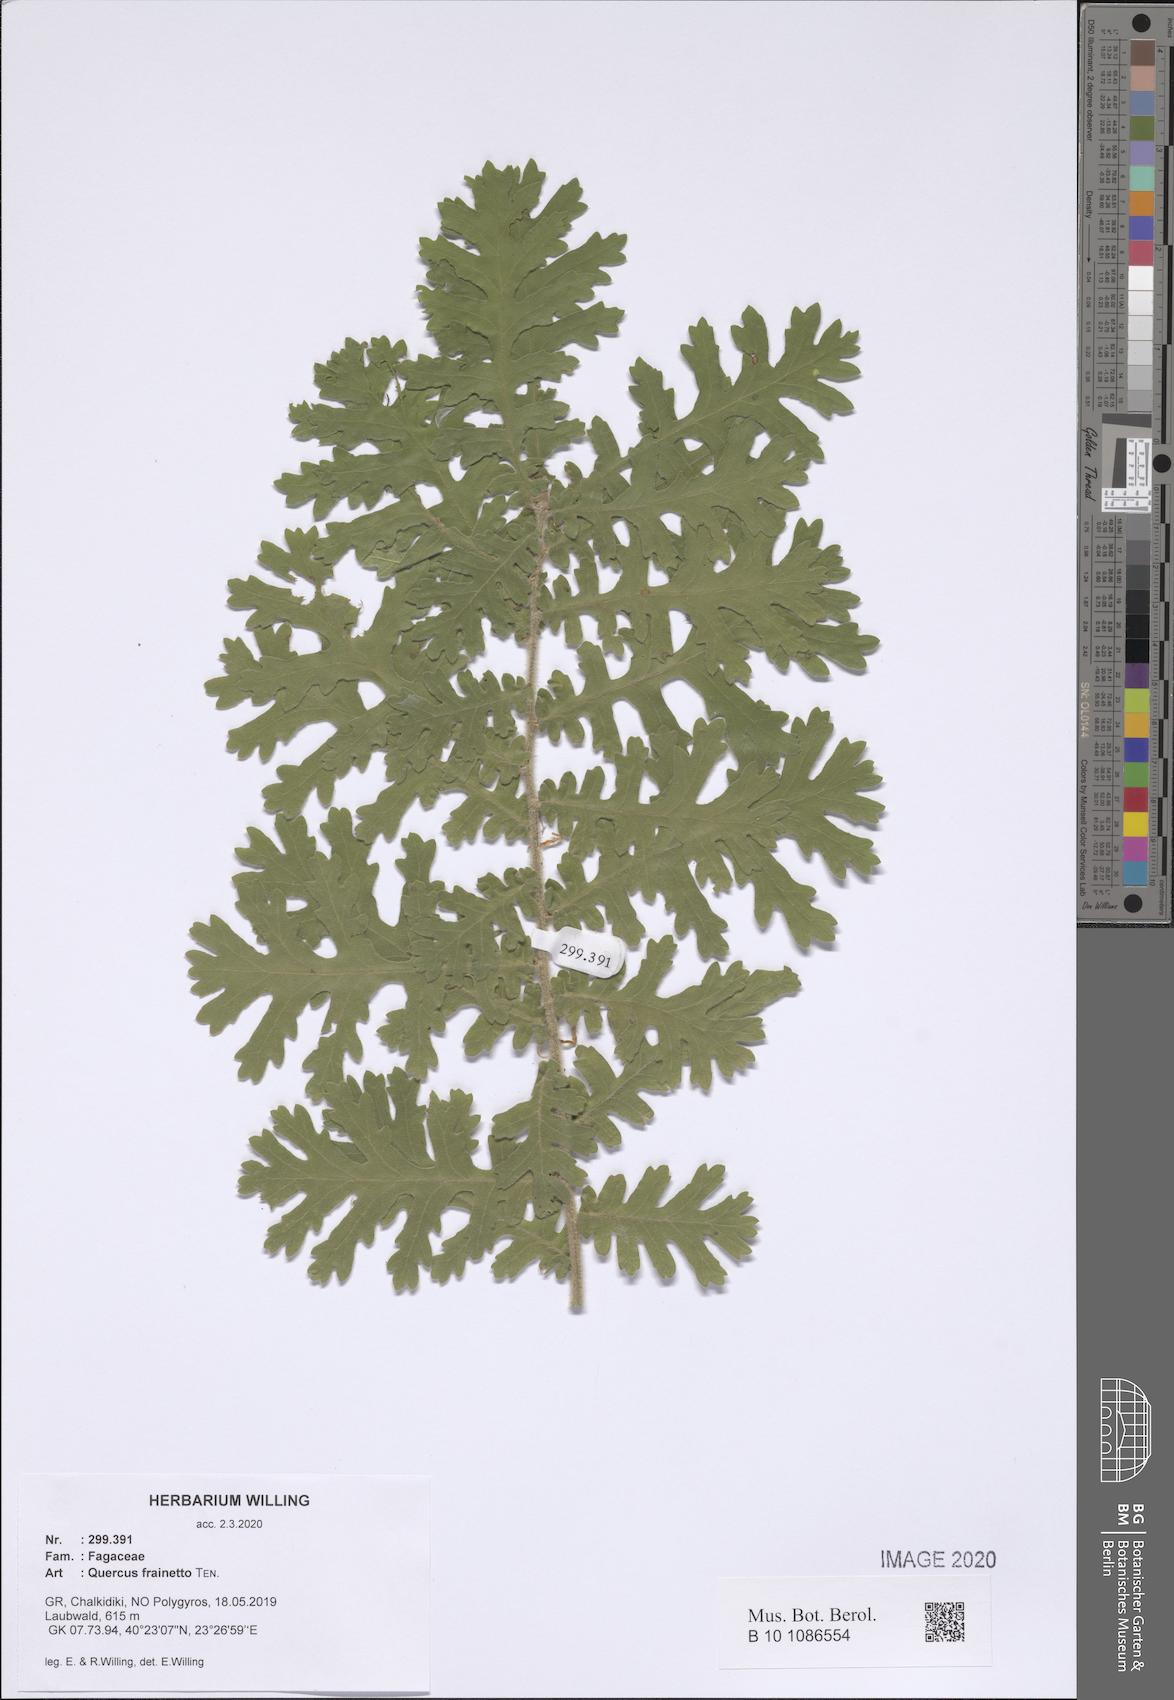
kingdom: Plantae
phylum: Tracheophyta
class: Magnoliopsida
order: Fagales
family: Fagaceae
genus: Quercus
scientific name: Quercus conferta
